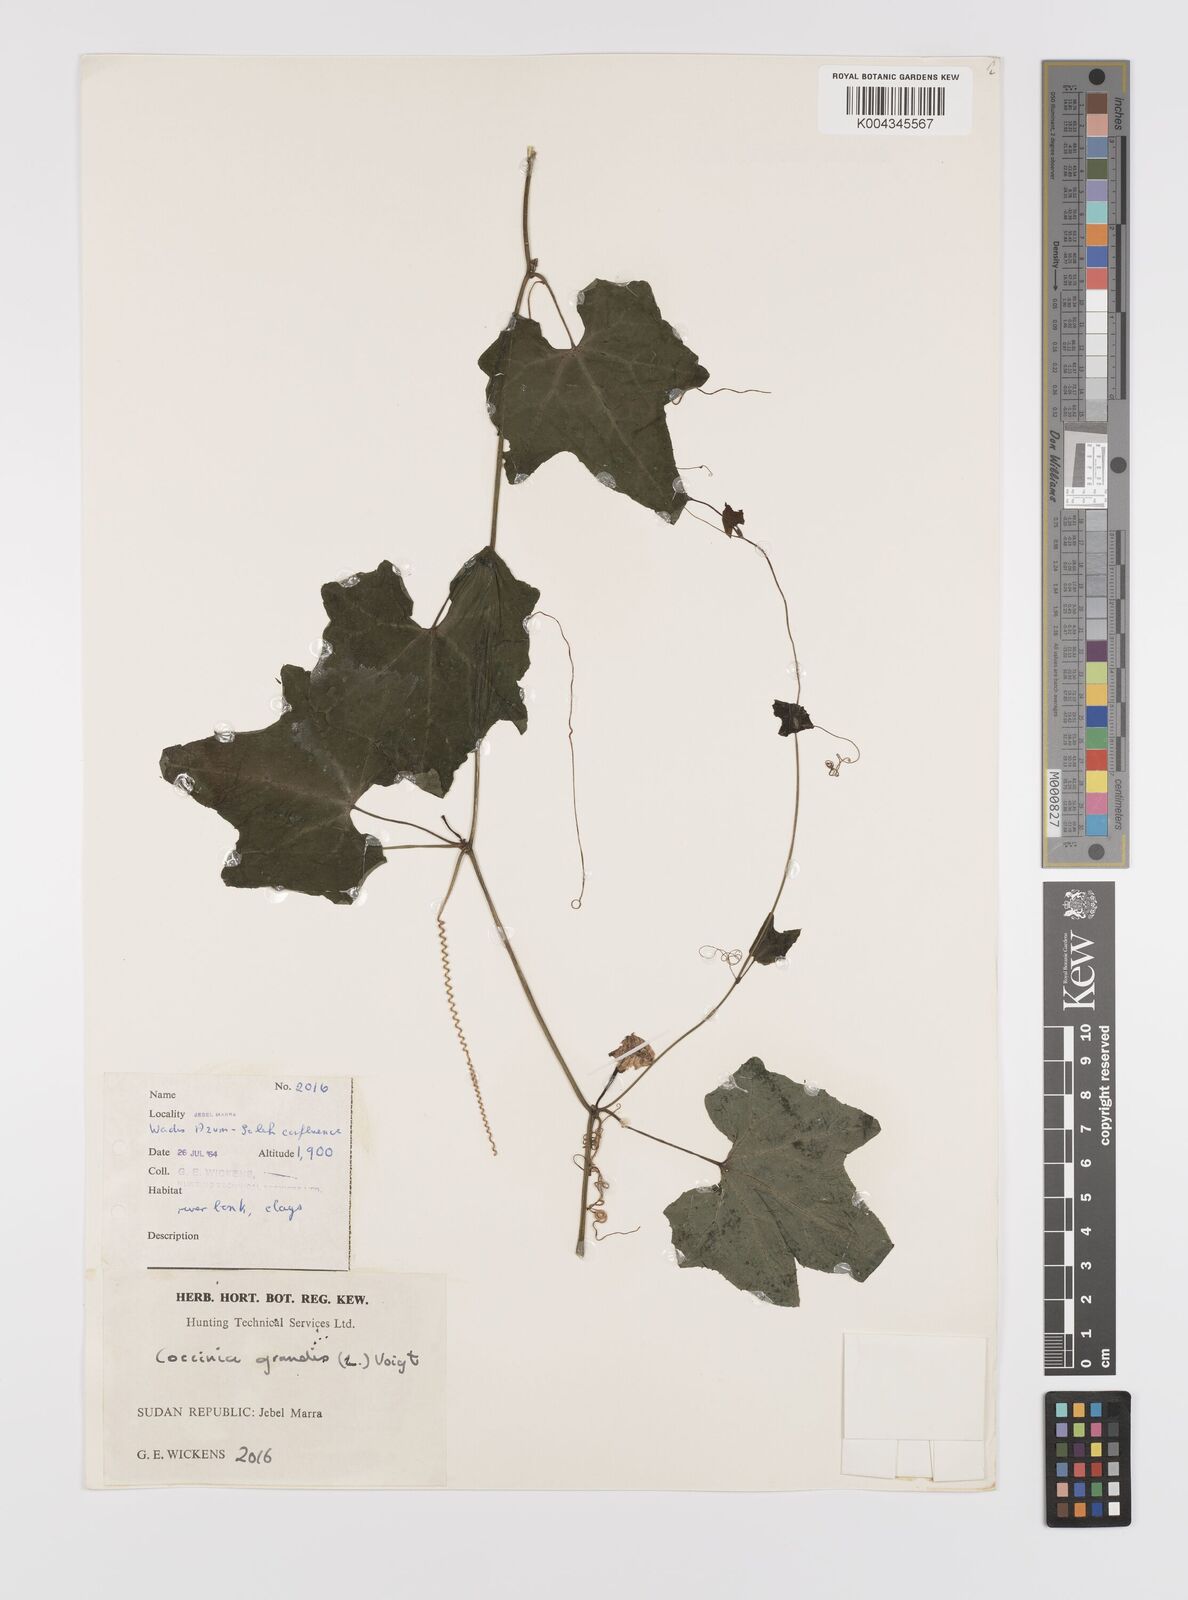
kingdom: Plantae
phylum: Tracheophyta
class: Magnoliopsida
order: Cucurbitales
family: Cucurbitaceae
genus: Coccinia
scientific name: Coccinia grandis
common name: Ivy gourd
